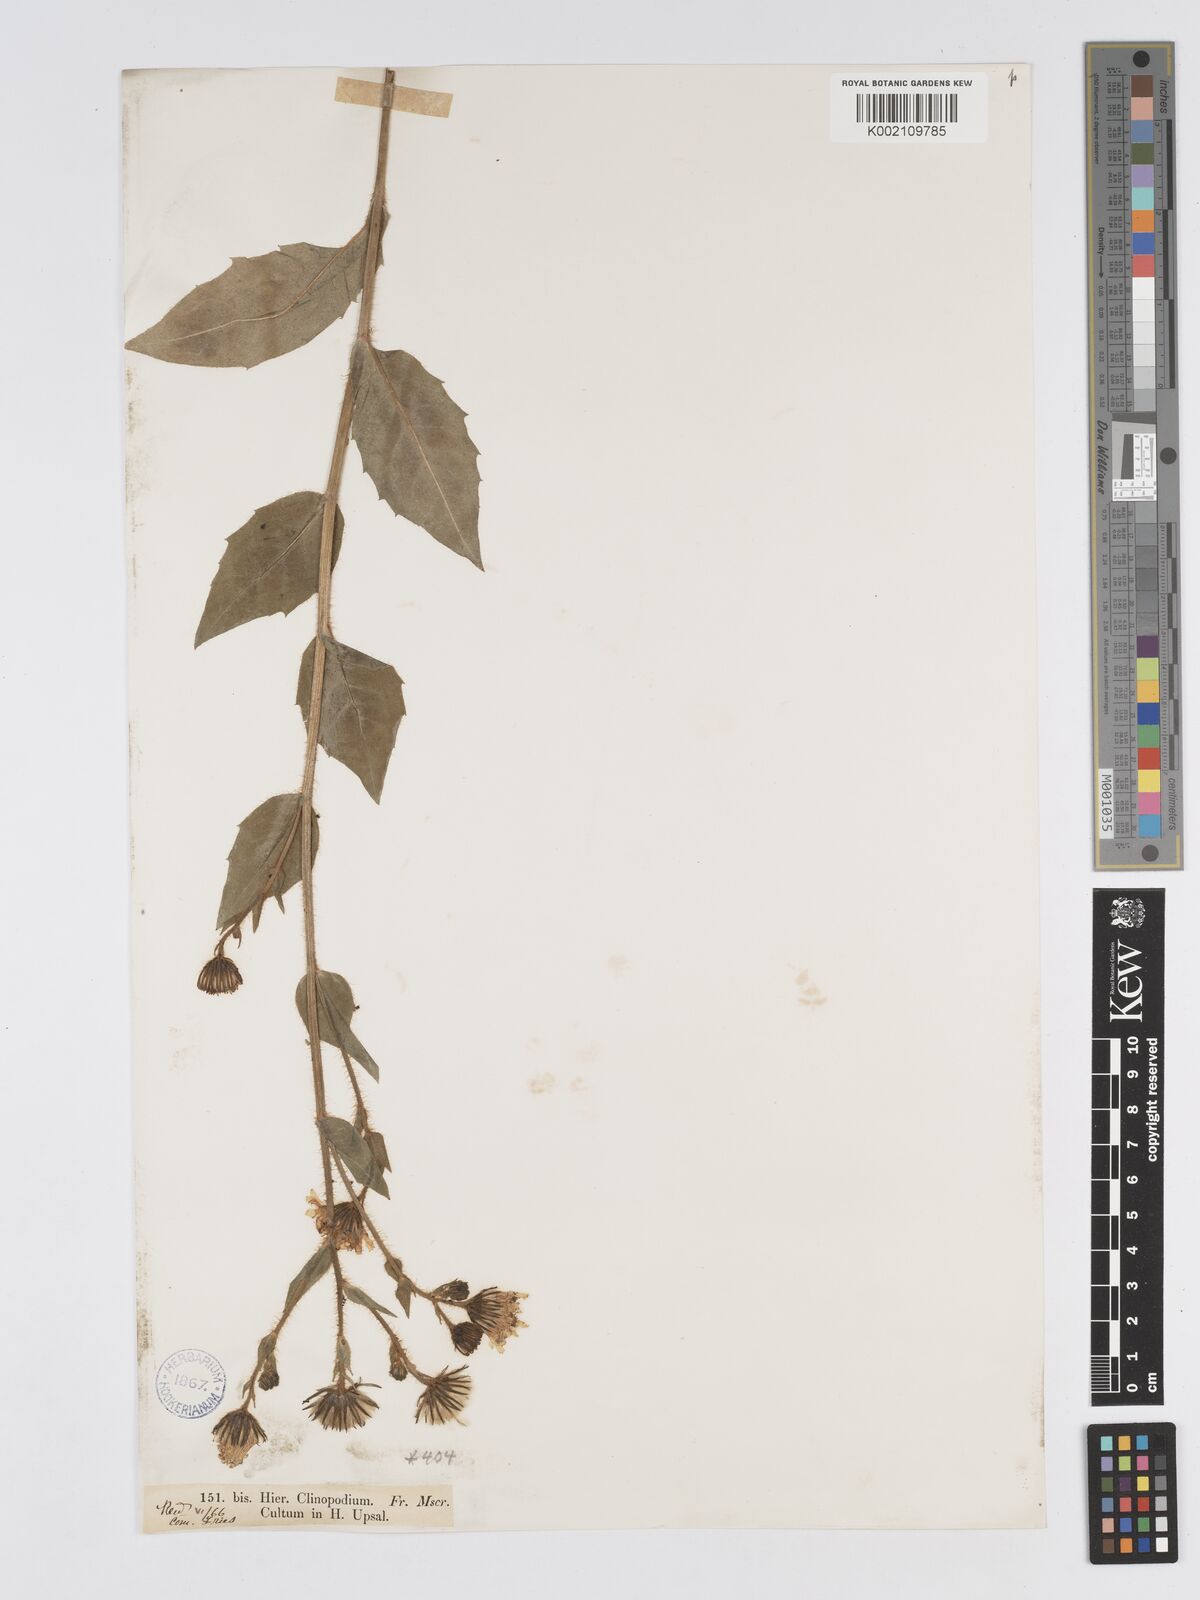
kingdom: Plantae
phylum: Tracheophyta
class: Magnoliopsida
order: Asterales
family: Asteraceae
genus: Hieracium
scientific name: Hieracium
